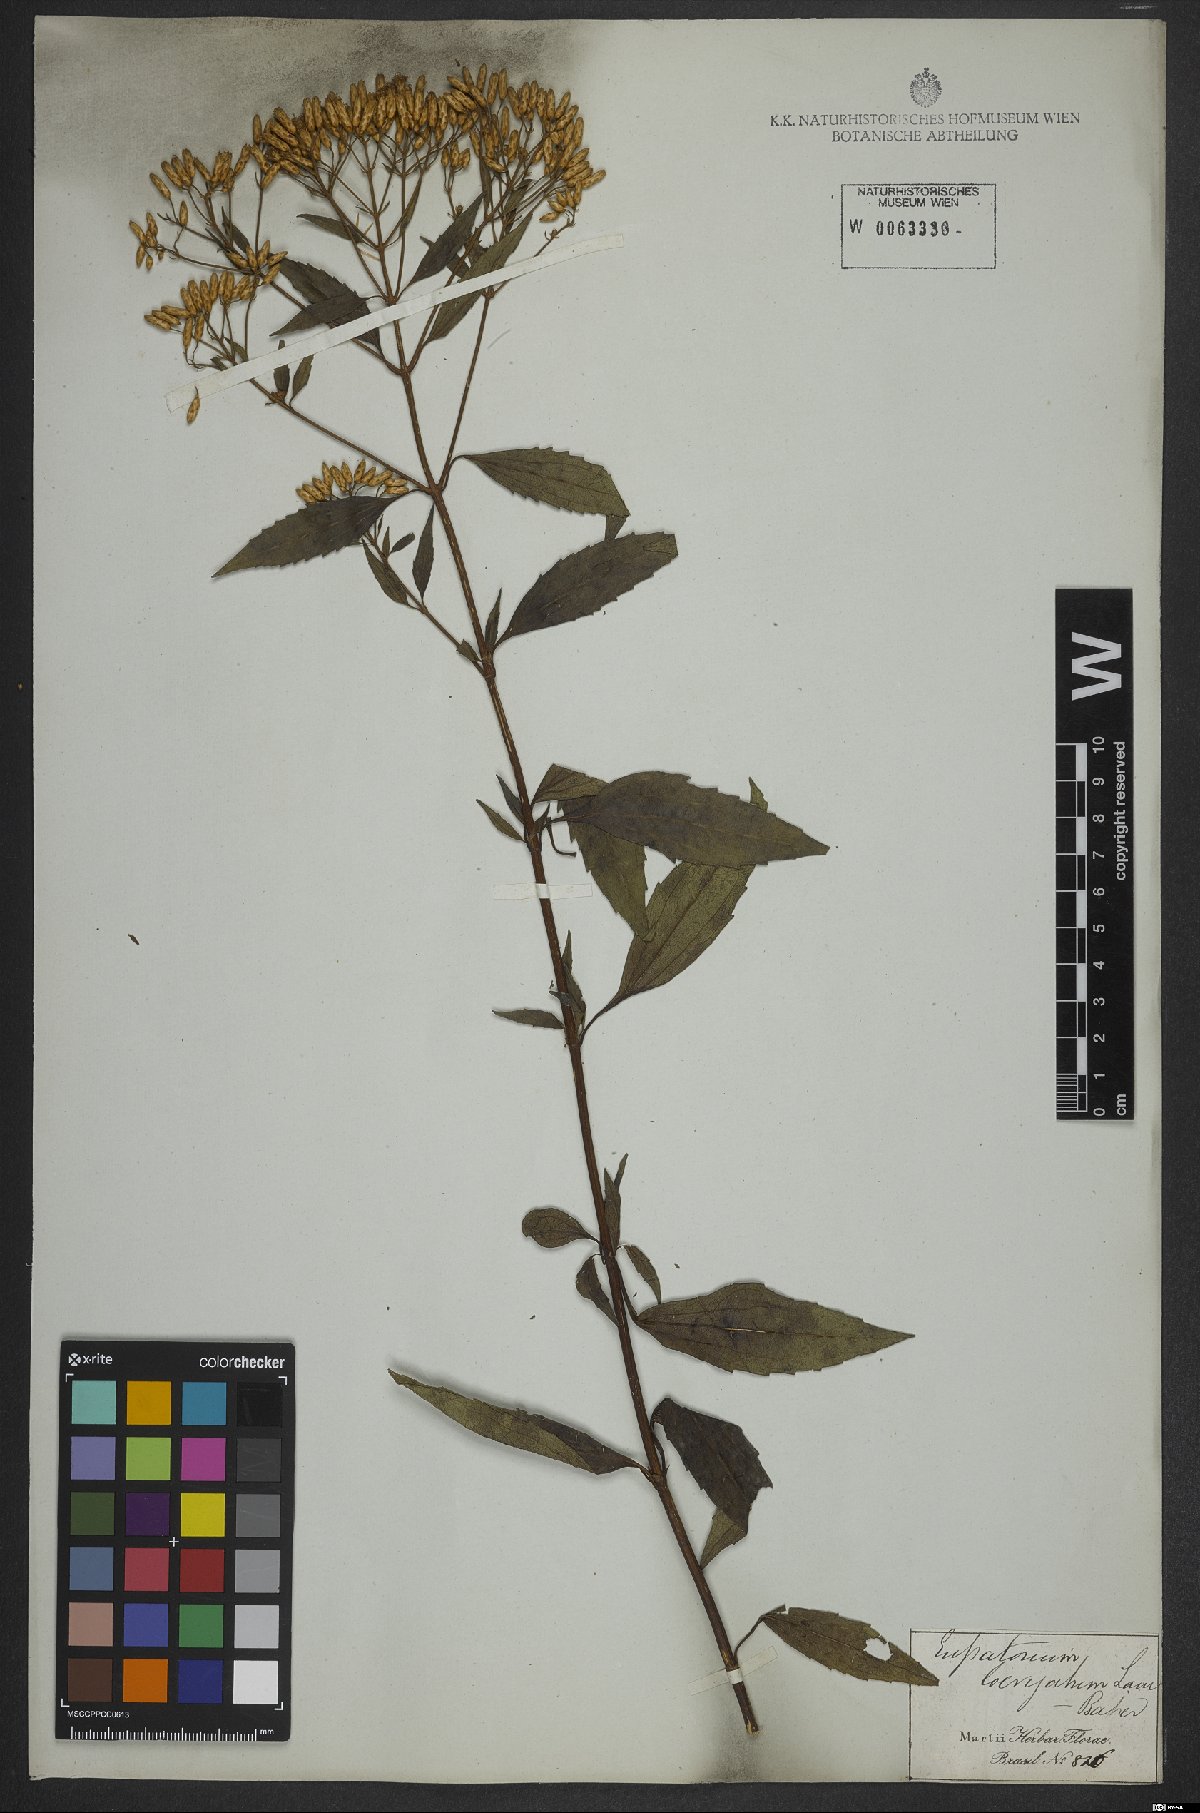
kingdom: Plantae
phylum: Tracheophyta
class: Magnoliopsida
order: Asterales
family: Asteraceae
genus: Eupatorium
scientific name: Eupatorium laevigatum
